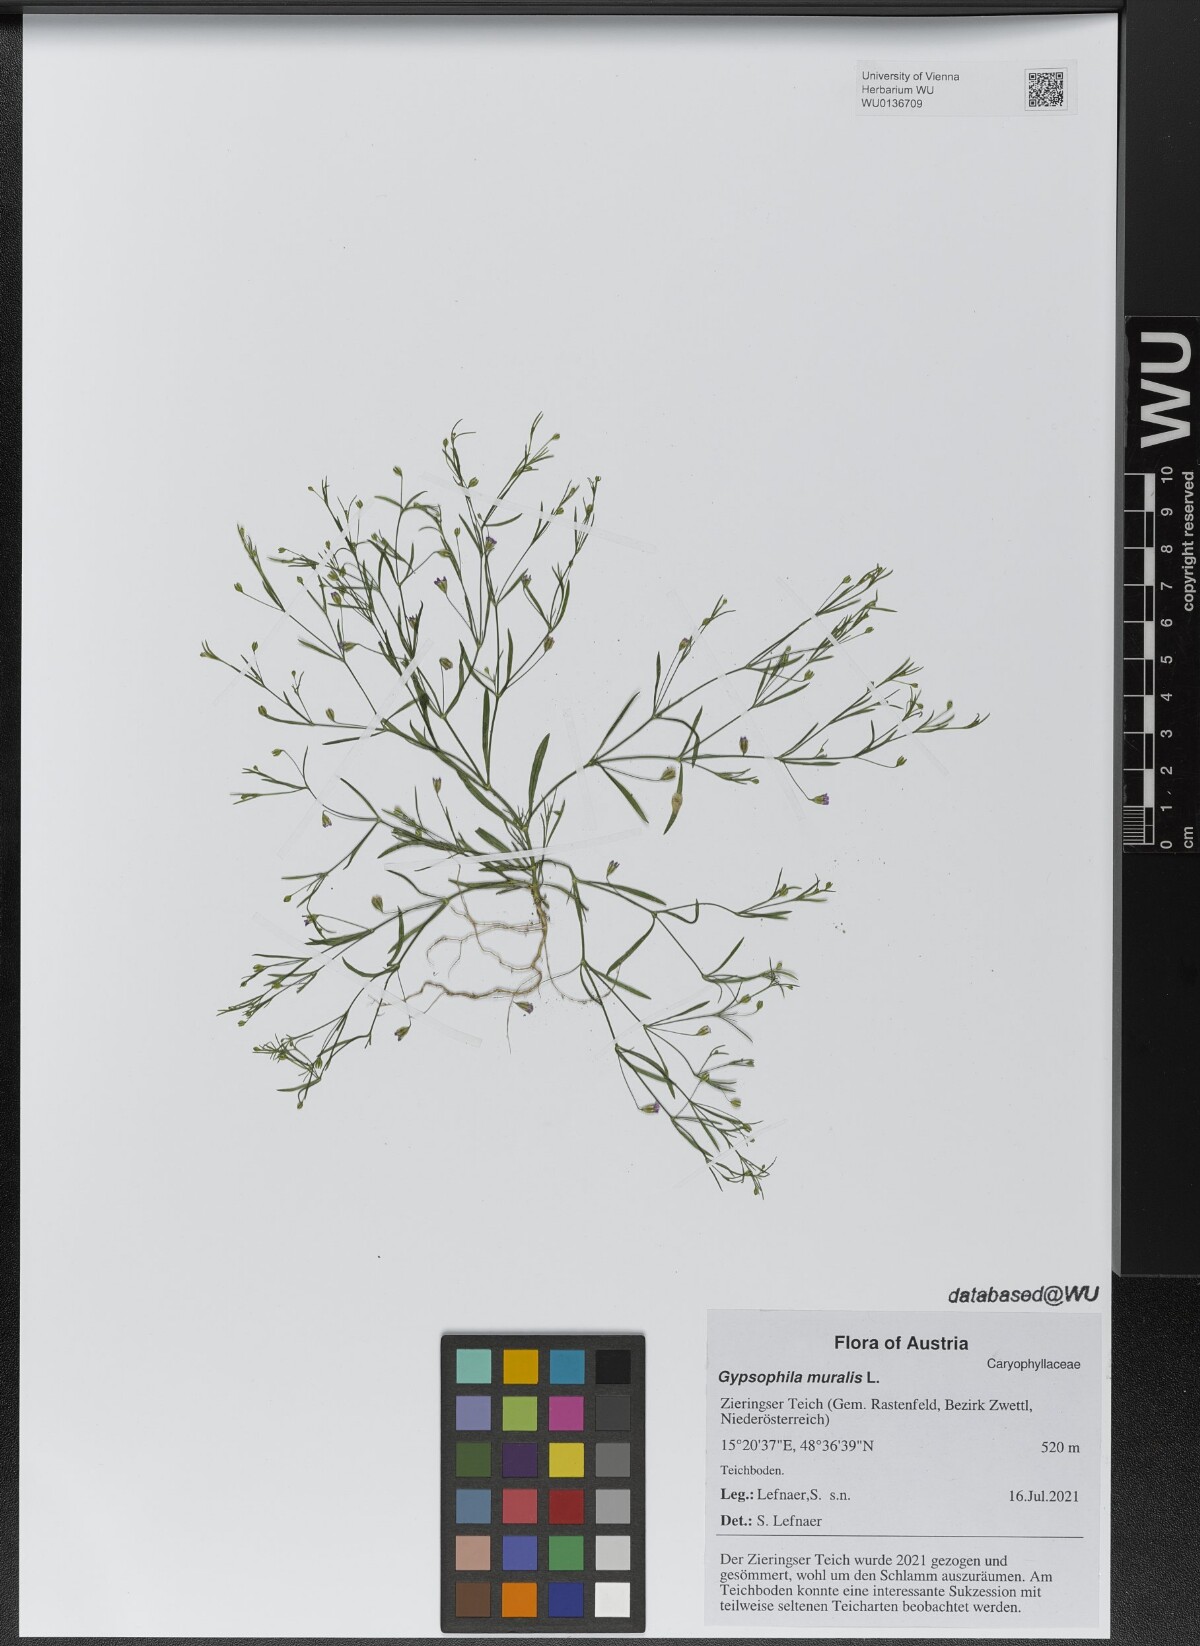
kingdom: Plantae
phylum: Tracheophyta
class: Magnoliopsida
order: Caryophyllales
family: Caryophyllaceae
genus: Psammophiliella
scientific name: Psammophiliella muralis
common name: Cushion baby's-breath
